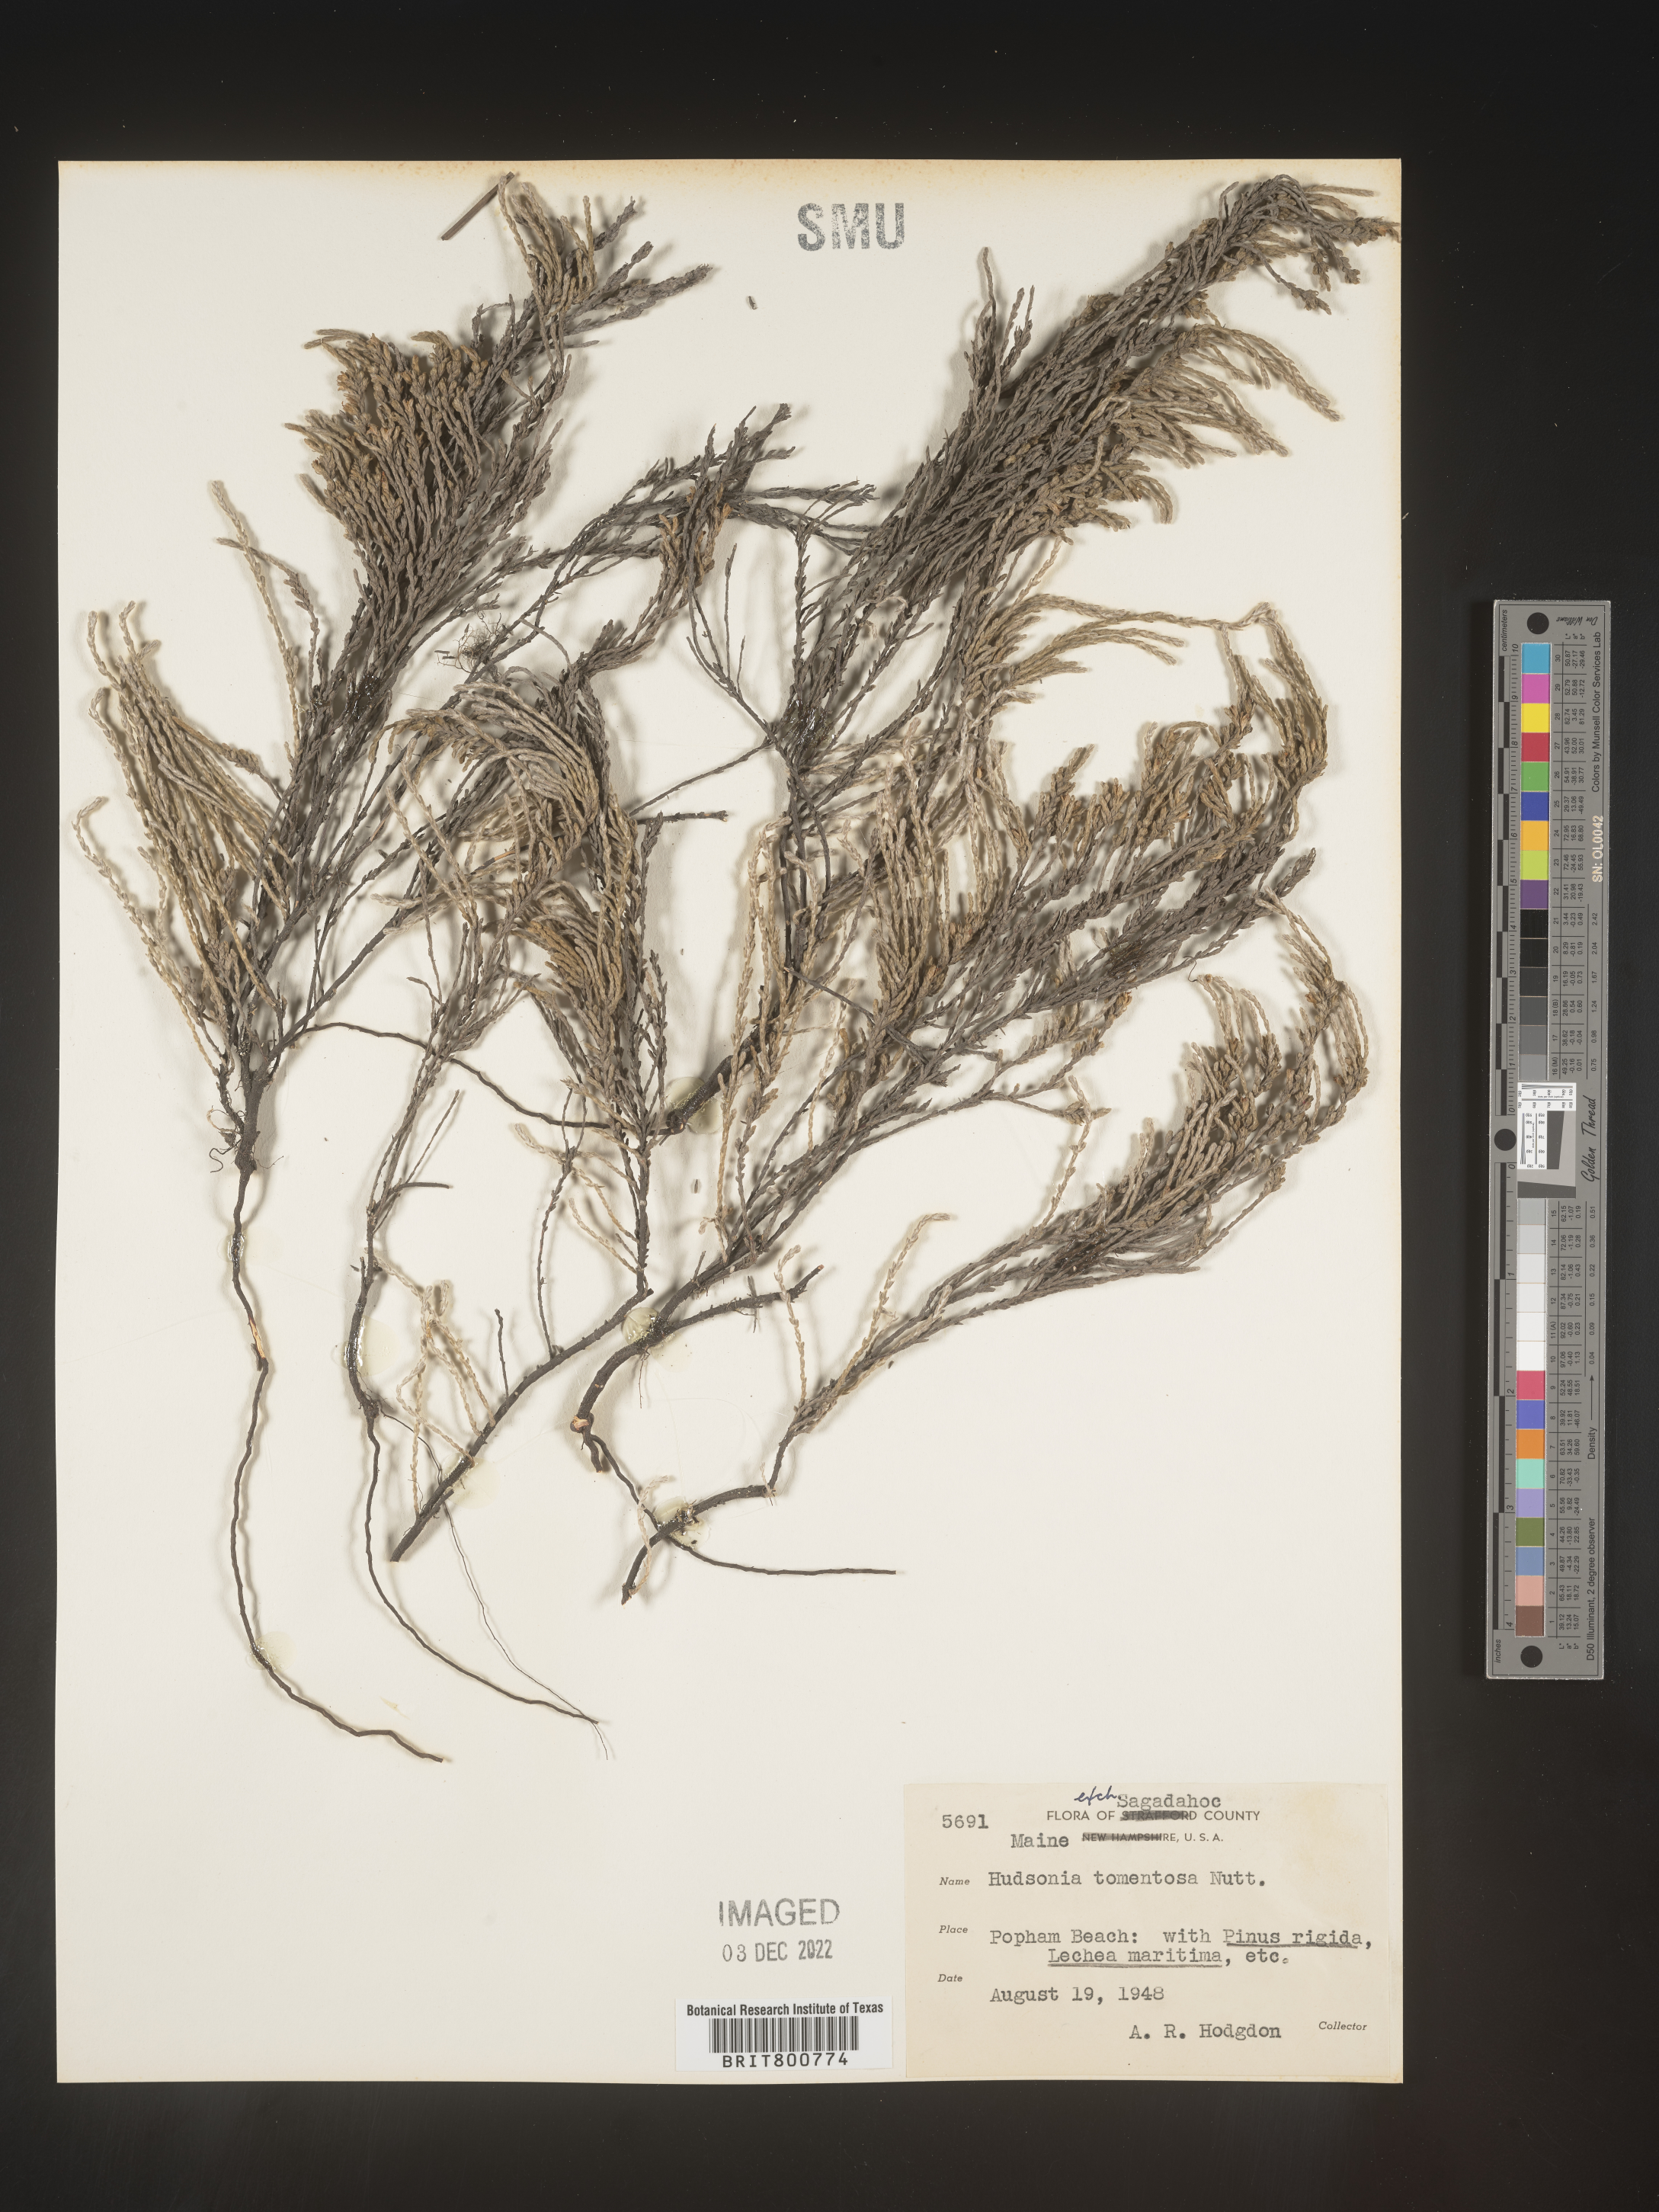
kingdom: Plantae
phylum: Tracheophyta
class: Magnoliopsida
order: Malvales
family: Cistaceae
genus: Hudsonia
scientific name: Hudsonia tomentosa
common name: Beach-heath
